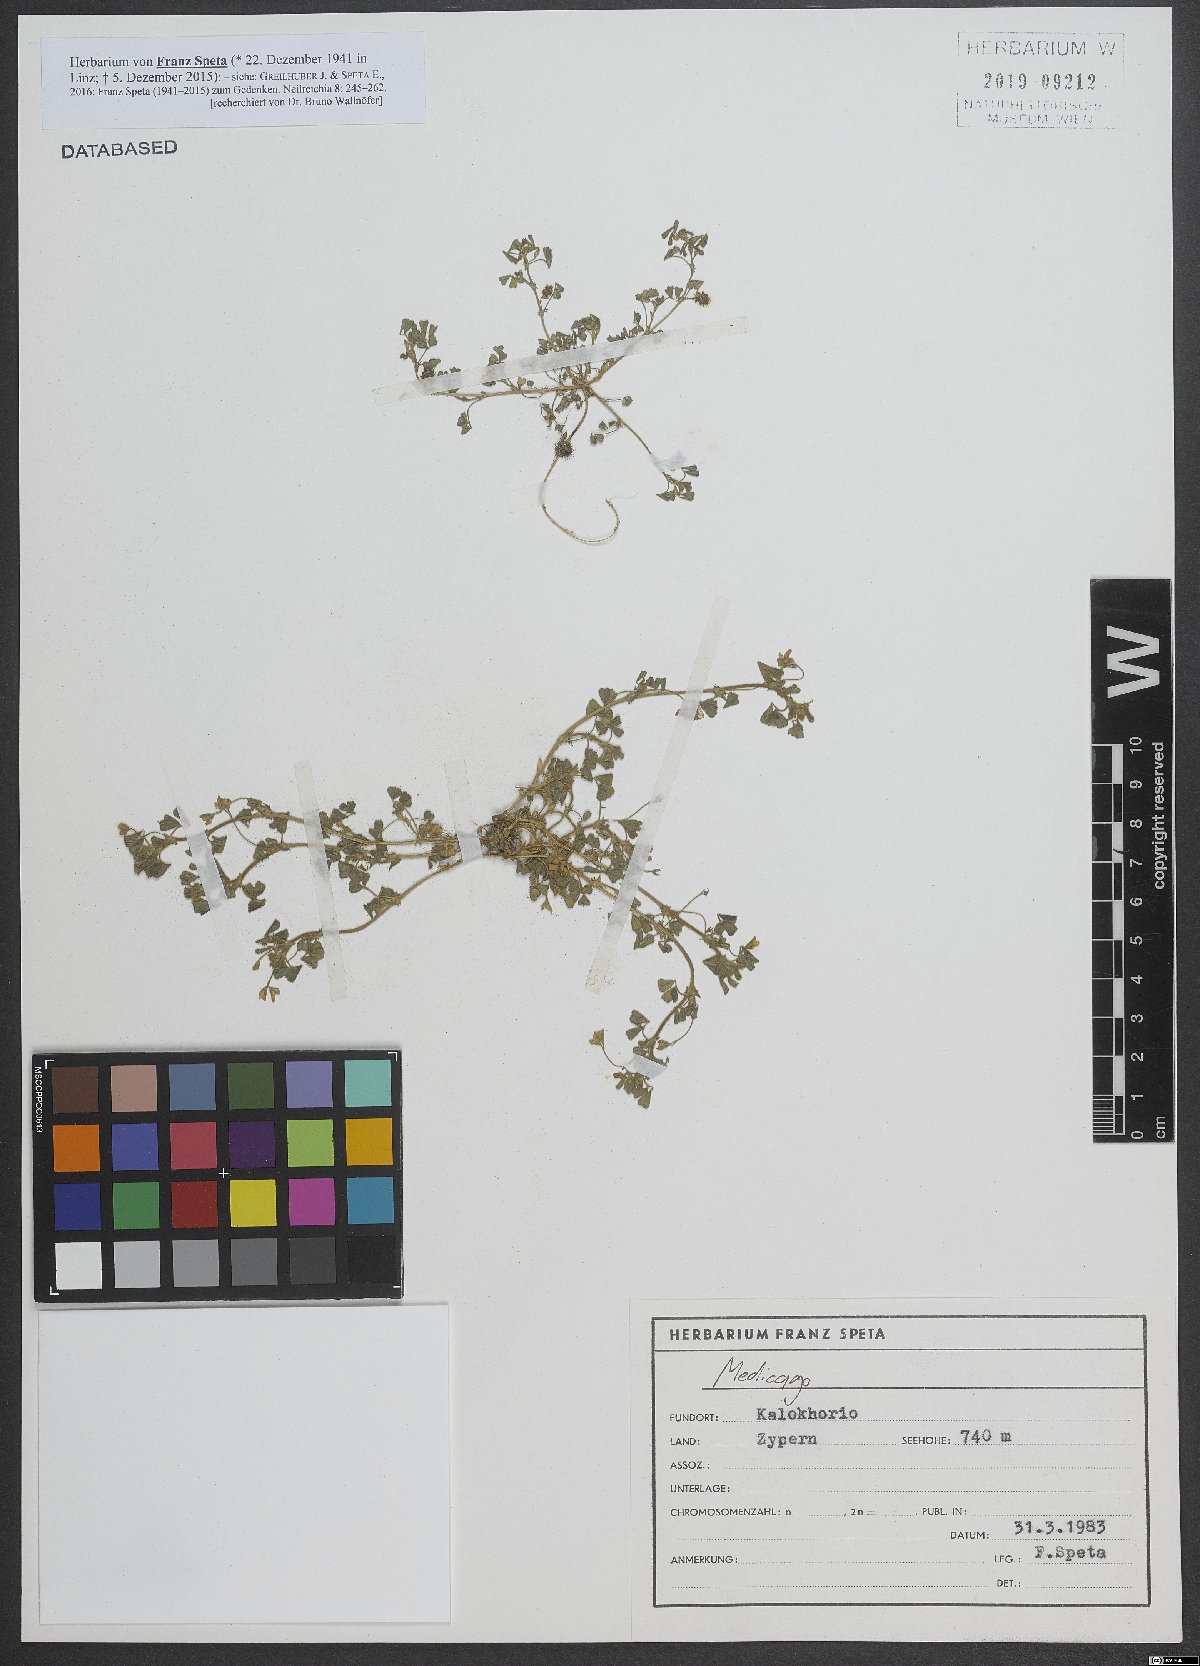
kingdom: Plantae
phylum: Tracheophyta
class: Magnoliopsida
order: Fabales
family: Fabaceae
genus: Medicago
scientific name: Medicago
